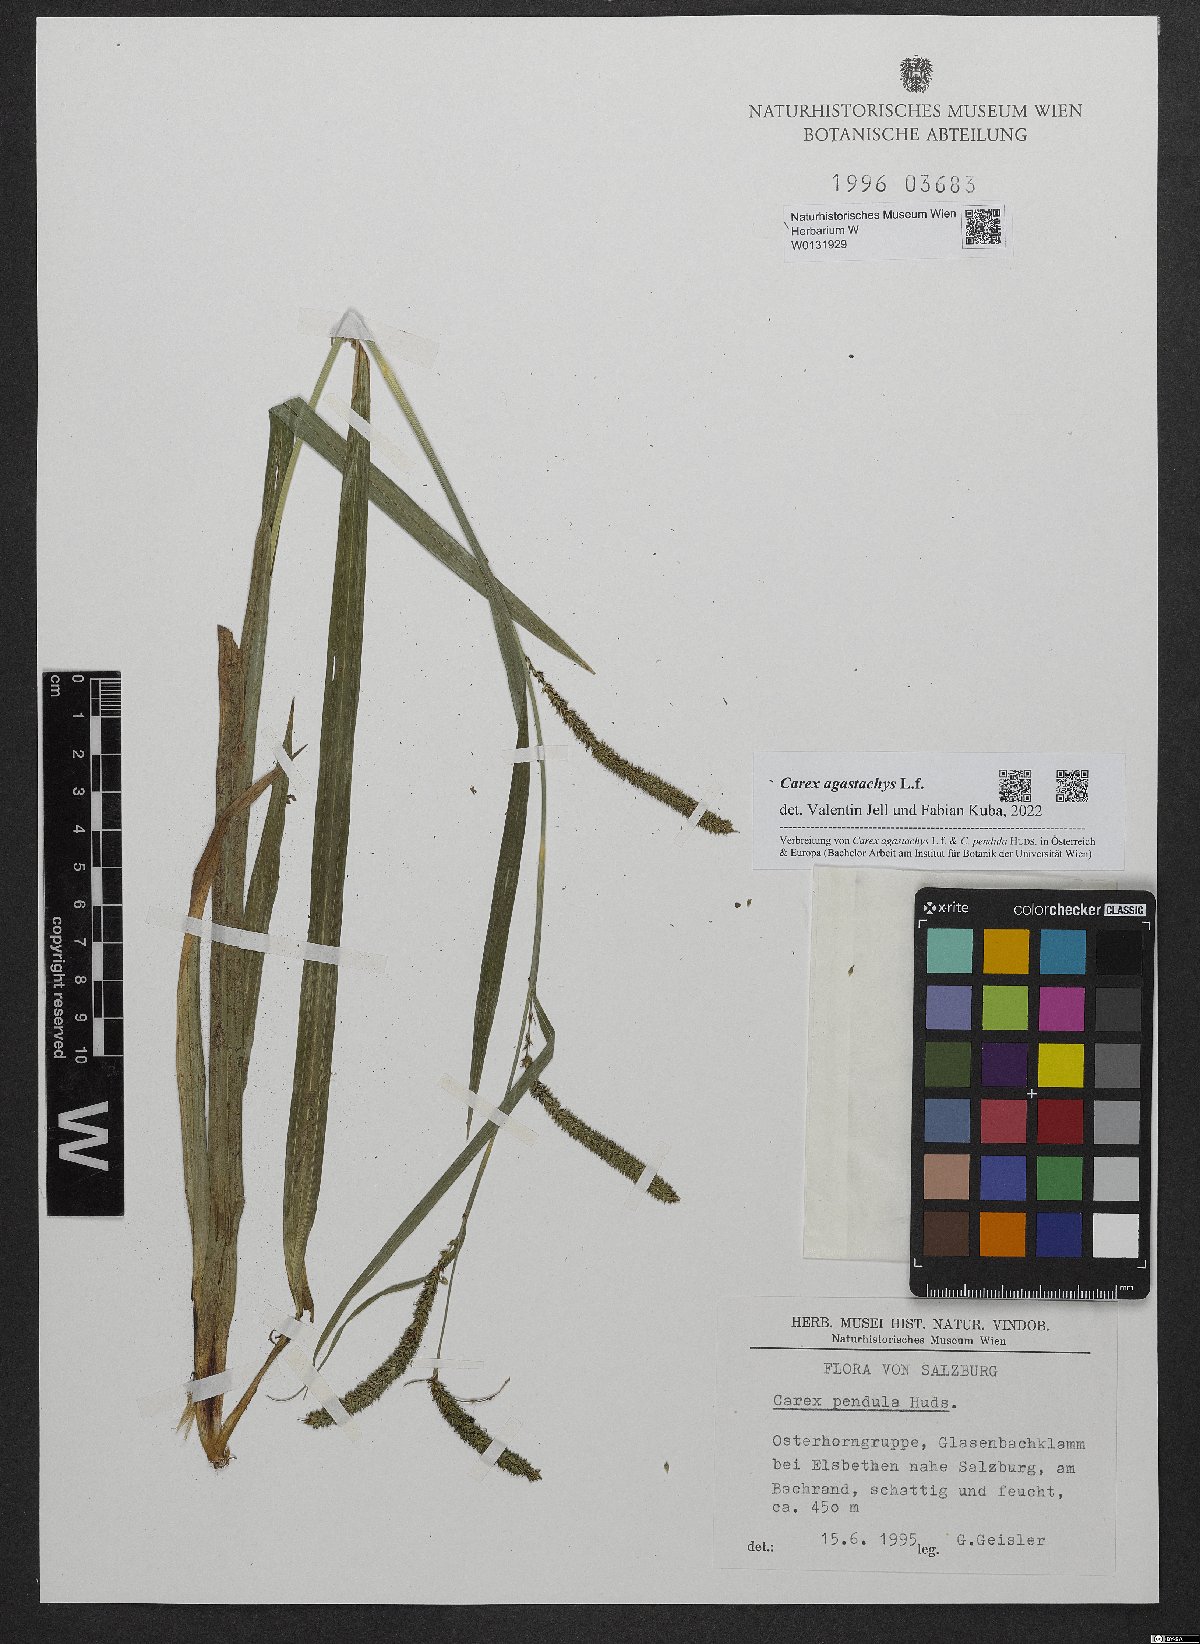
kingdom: Plantae
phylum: Tracheophyta
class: Liliopsida
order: Poales
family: Cyperaceae
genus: Carex
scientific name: Carex agastachys
